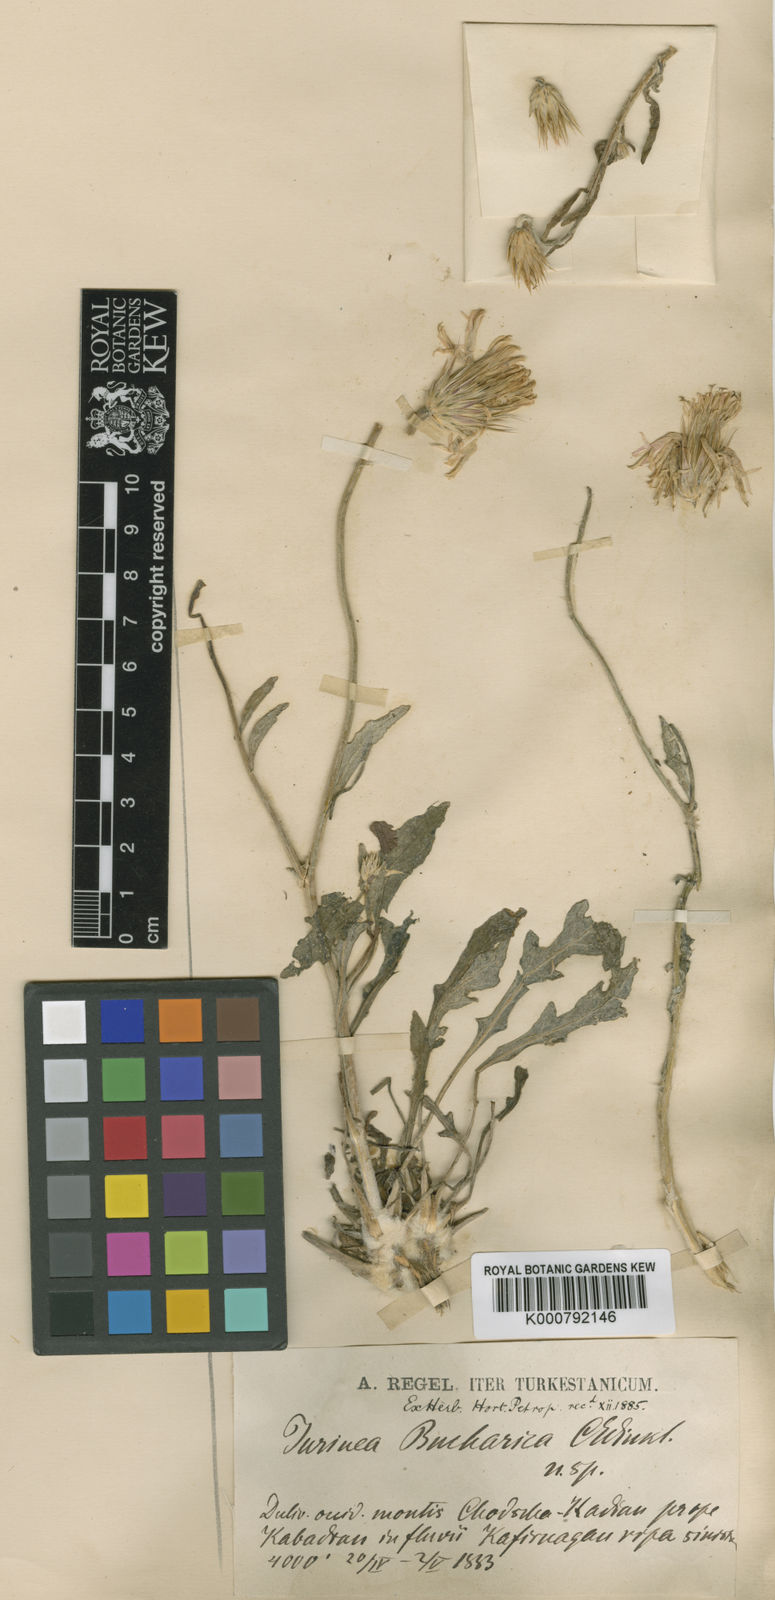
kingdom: Plantae
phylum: Tracheophyta
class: Magnoliopsida
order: Asterales
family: Asteraceae
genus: Jurinea
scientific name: Jurinea
